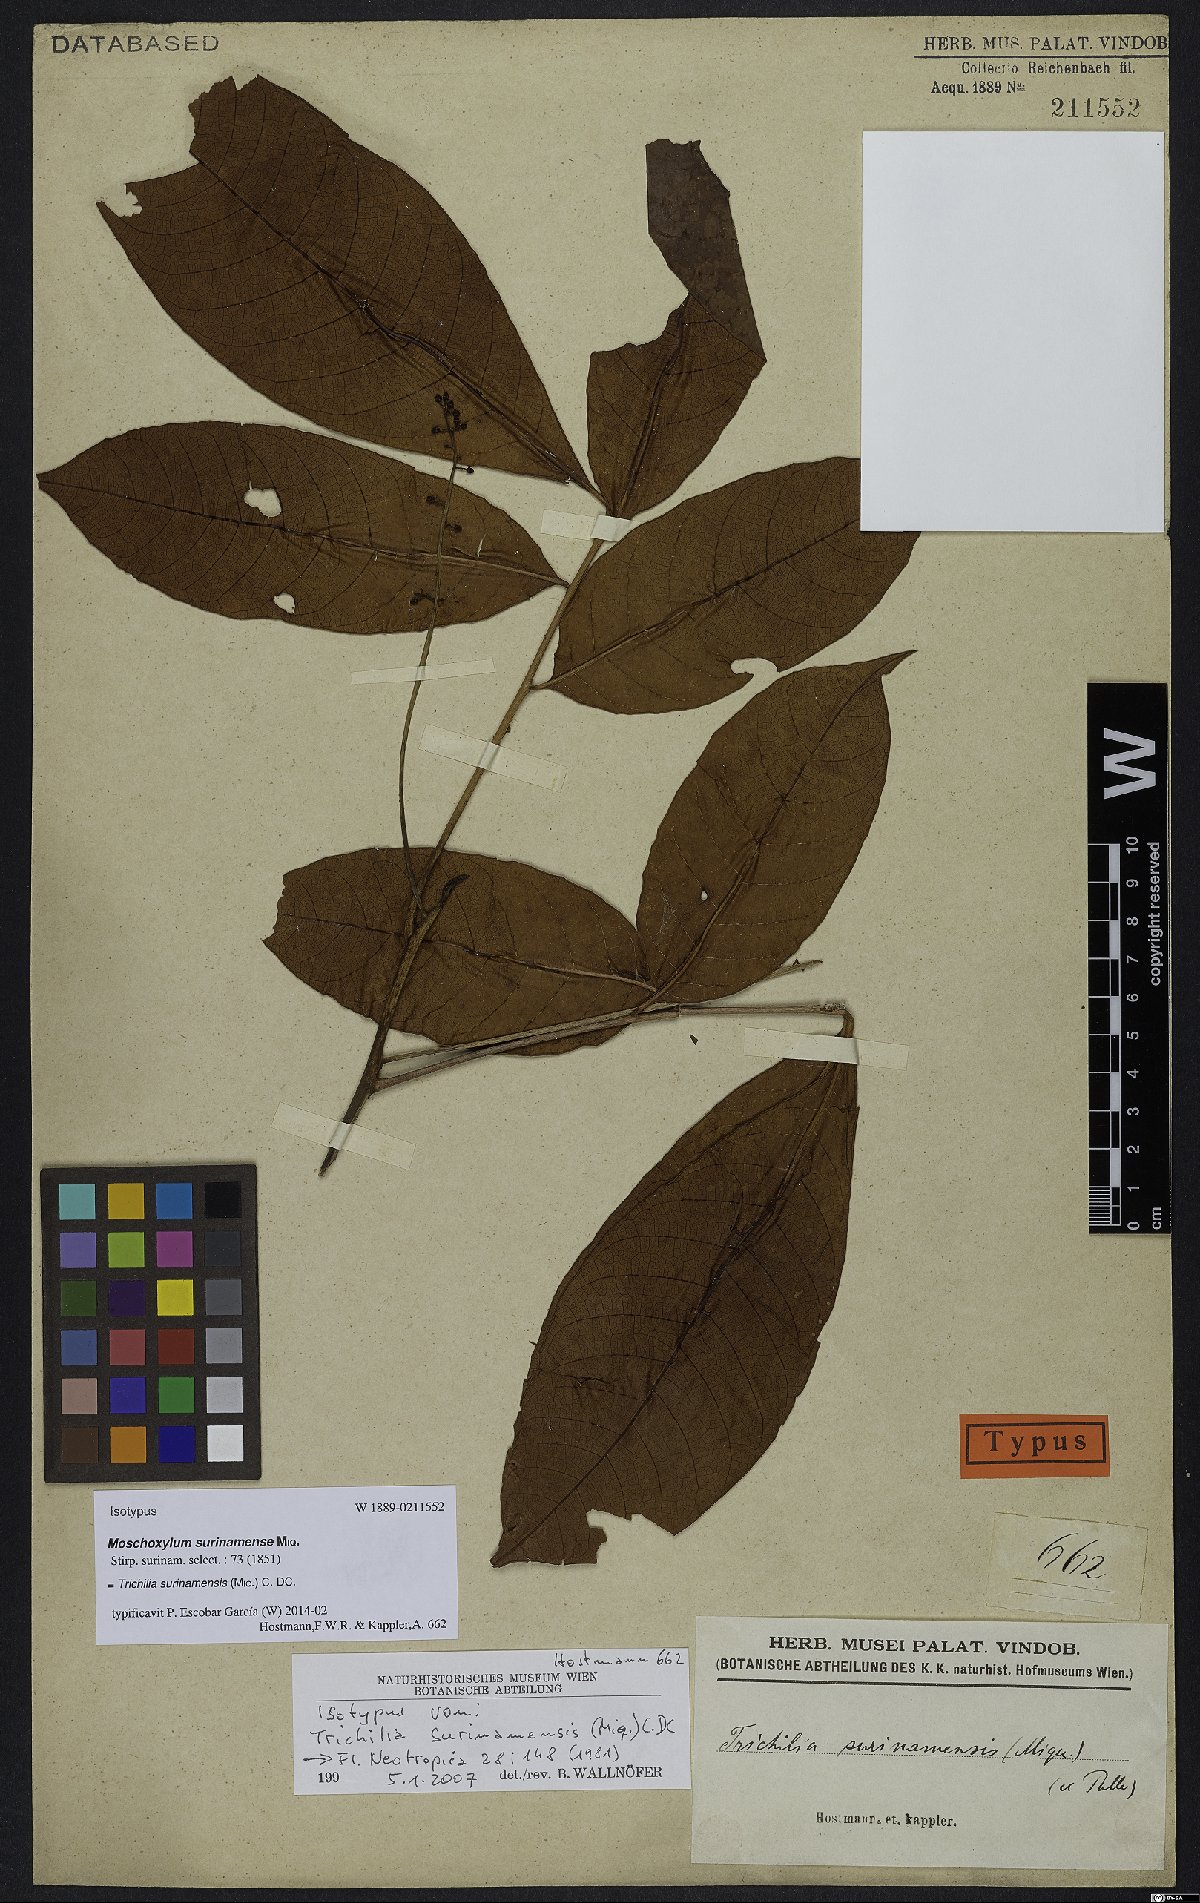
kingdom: Plantae
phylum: Tracheophyta
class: Magnoliopsida
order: Sapindales
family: Meliaceae
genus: Trichilia
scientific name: Trichilia surinamensis
